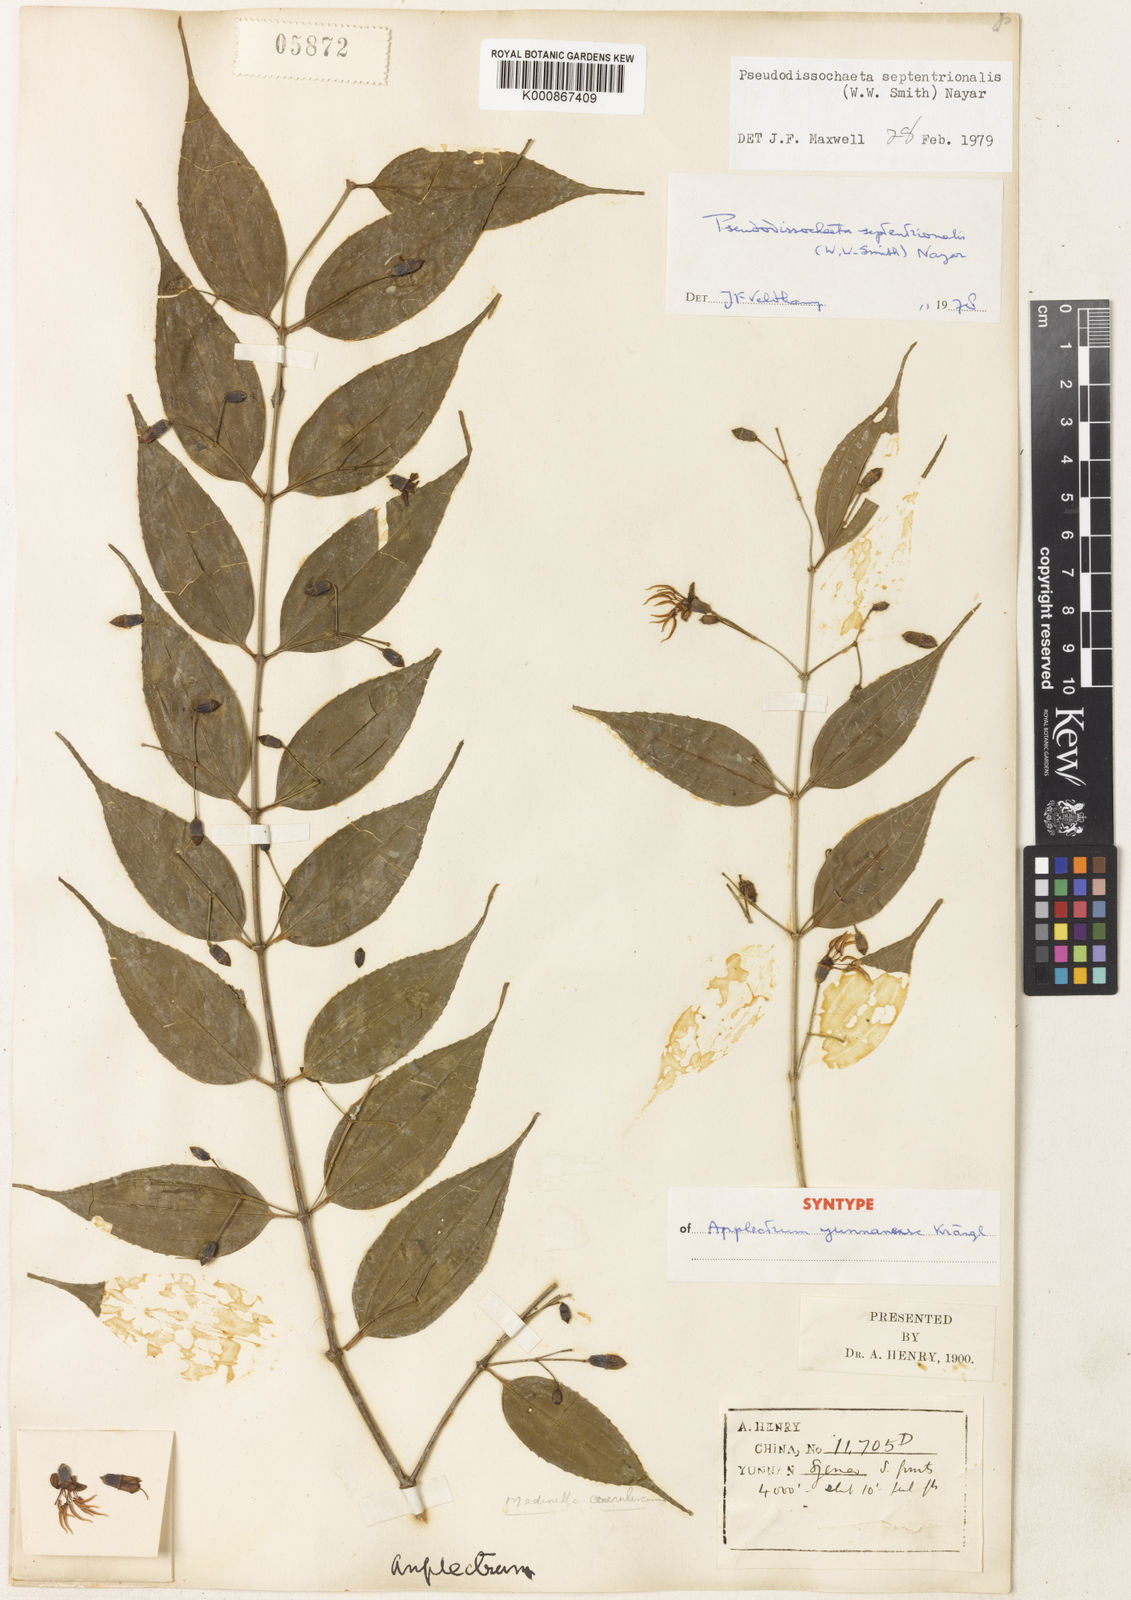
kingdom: Plantae
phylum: Tracheophyta
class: Magnoliopsida
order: Myrtales
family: Melastomataceae
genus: Pseudodissochaeta
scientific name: Pseudodissochaeta septentrionalis
